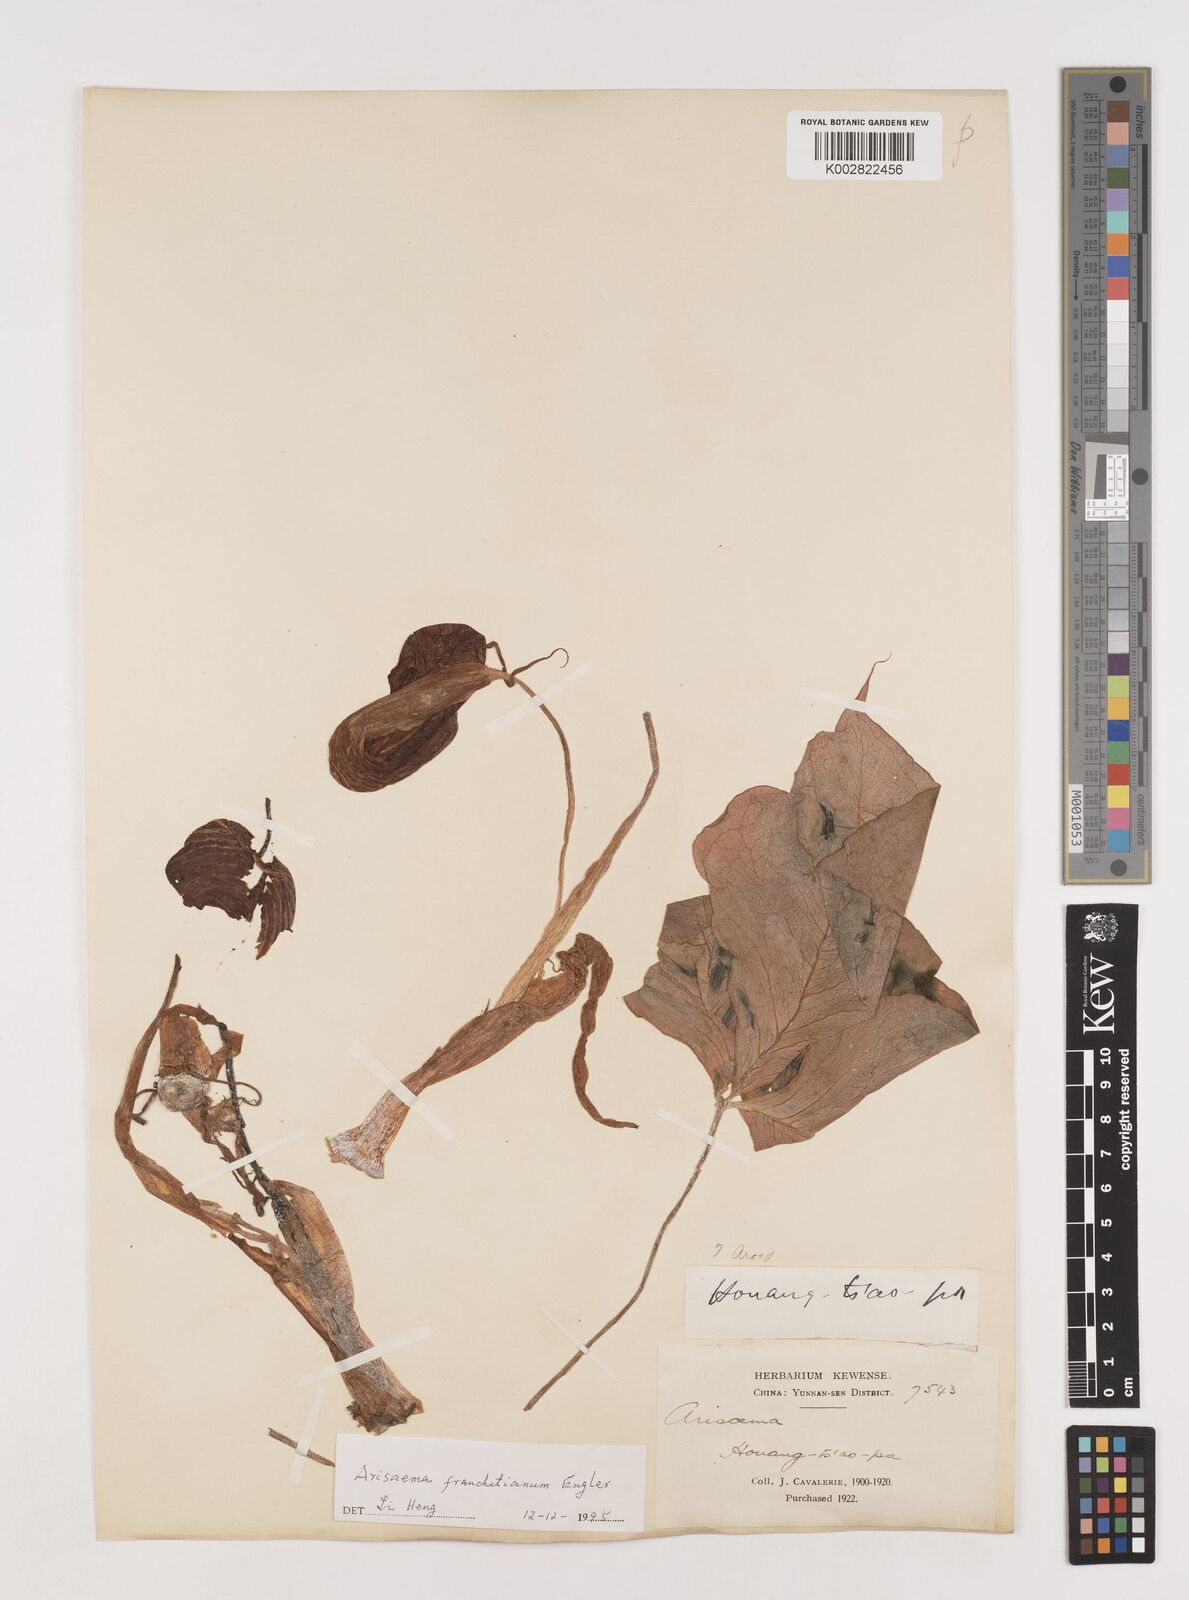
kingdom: Plantae
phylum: Tracheophyta
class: Liliopsida
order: Alismatales
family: Araceae
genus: Arisaema
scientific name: Arisaema franchetianum
